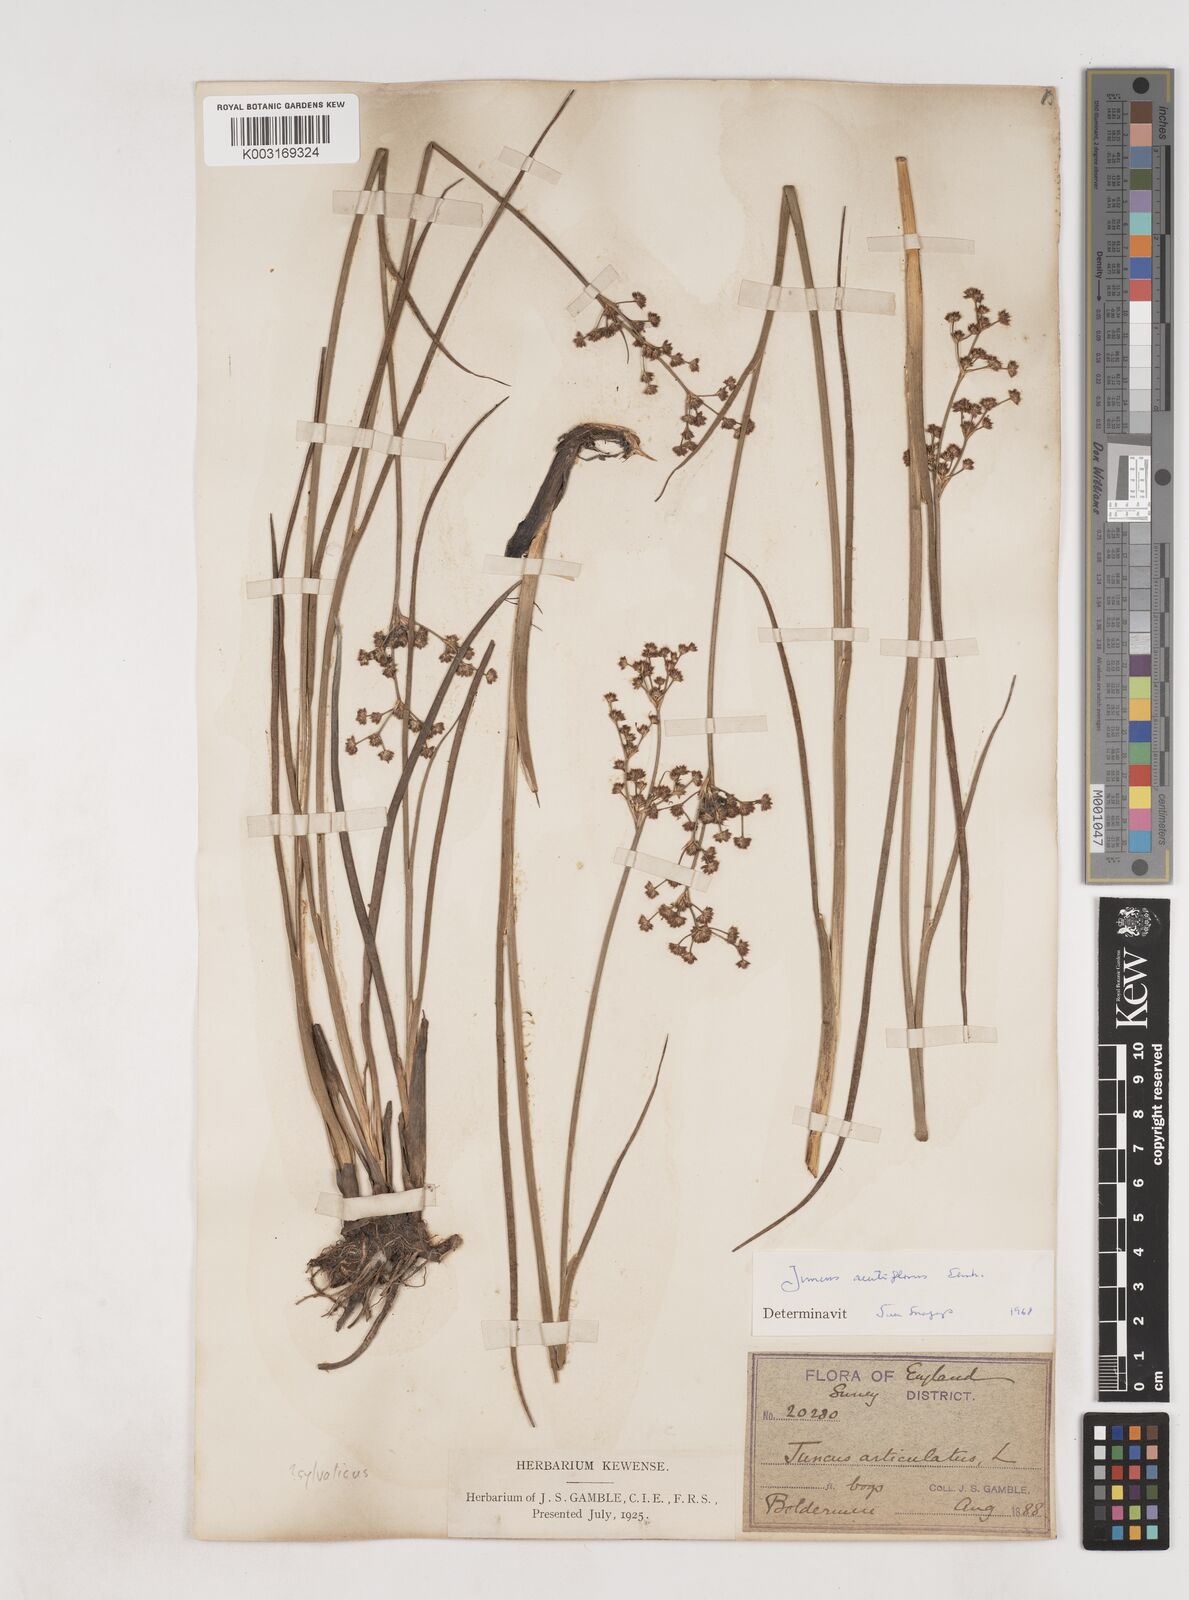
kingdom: Plantae
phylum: Tracheophyta
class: Liliopsida
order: Poales
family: Juncaceae
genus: Juncus
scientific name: Juncus acutiflorus
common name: Sharp-flowered rush
